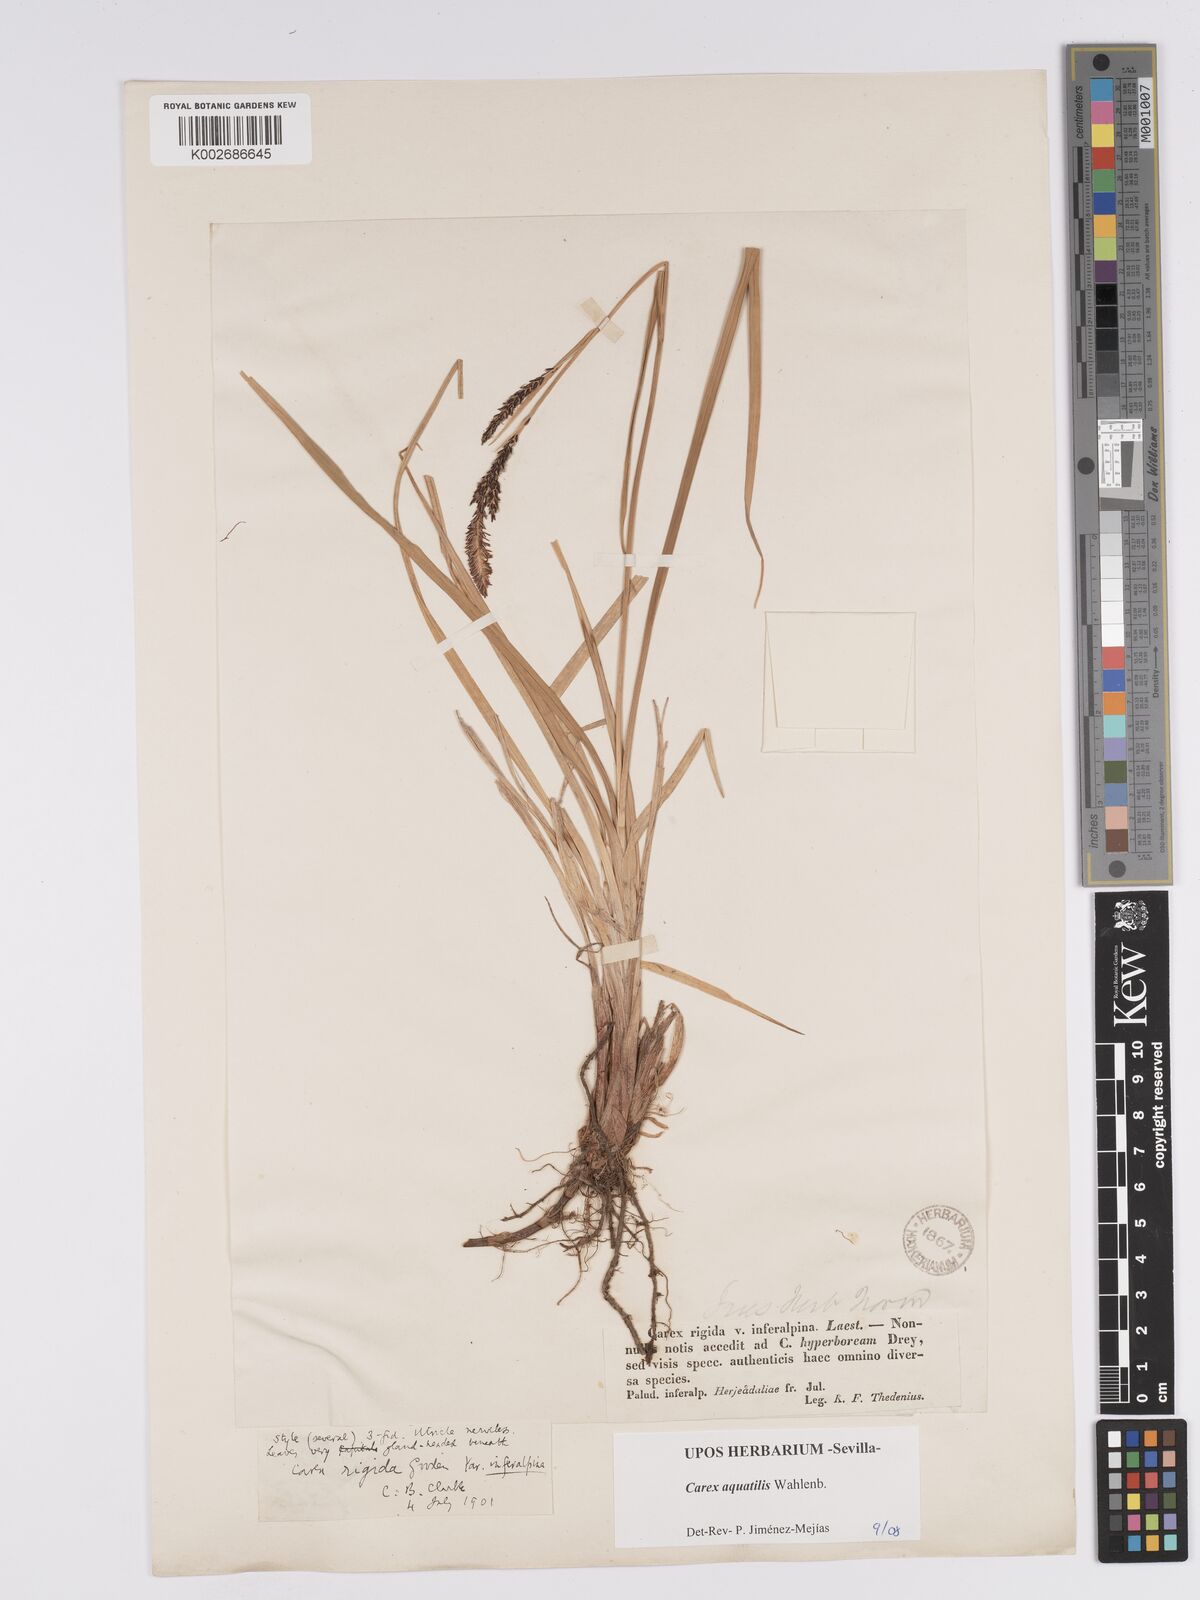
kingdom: Plantae
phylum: Tracheophyta
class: Liliopsida
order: Poales
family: Cyperaceae
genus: Carex
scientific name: Carex aquatilis
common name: Water sedge
